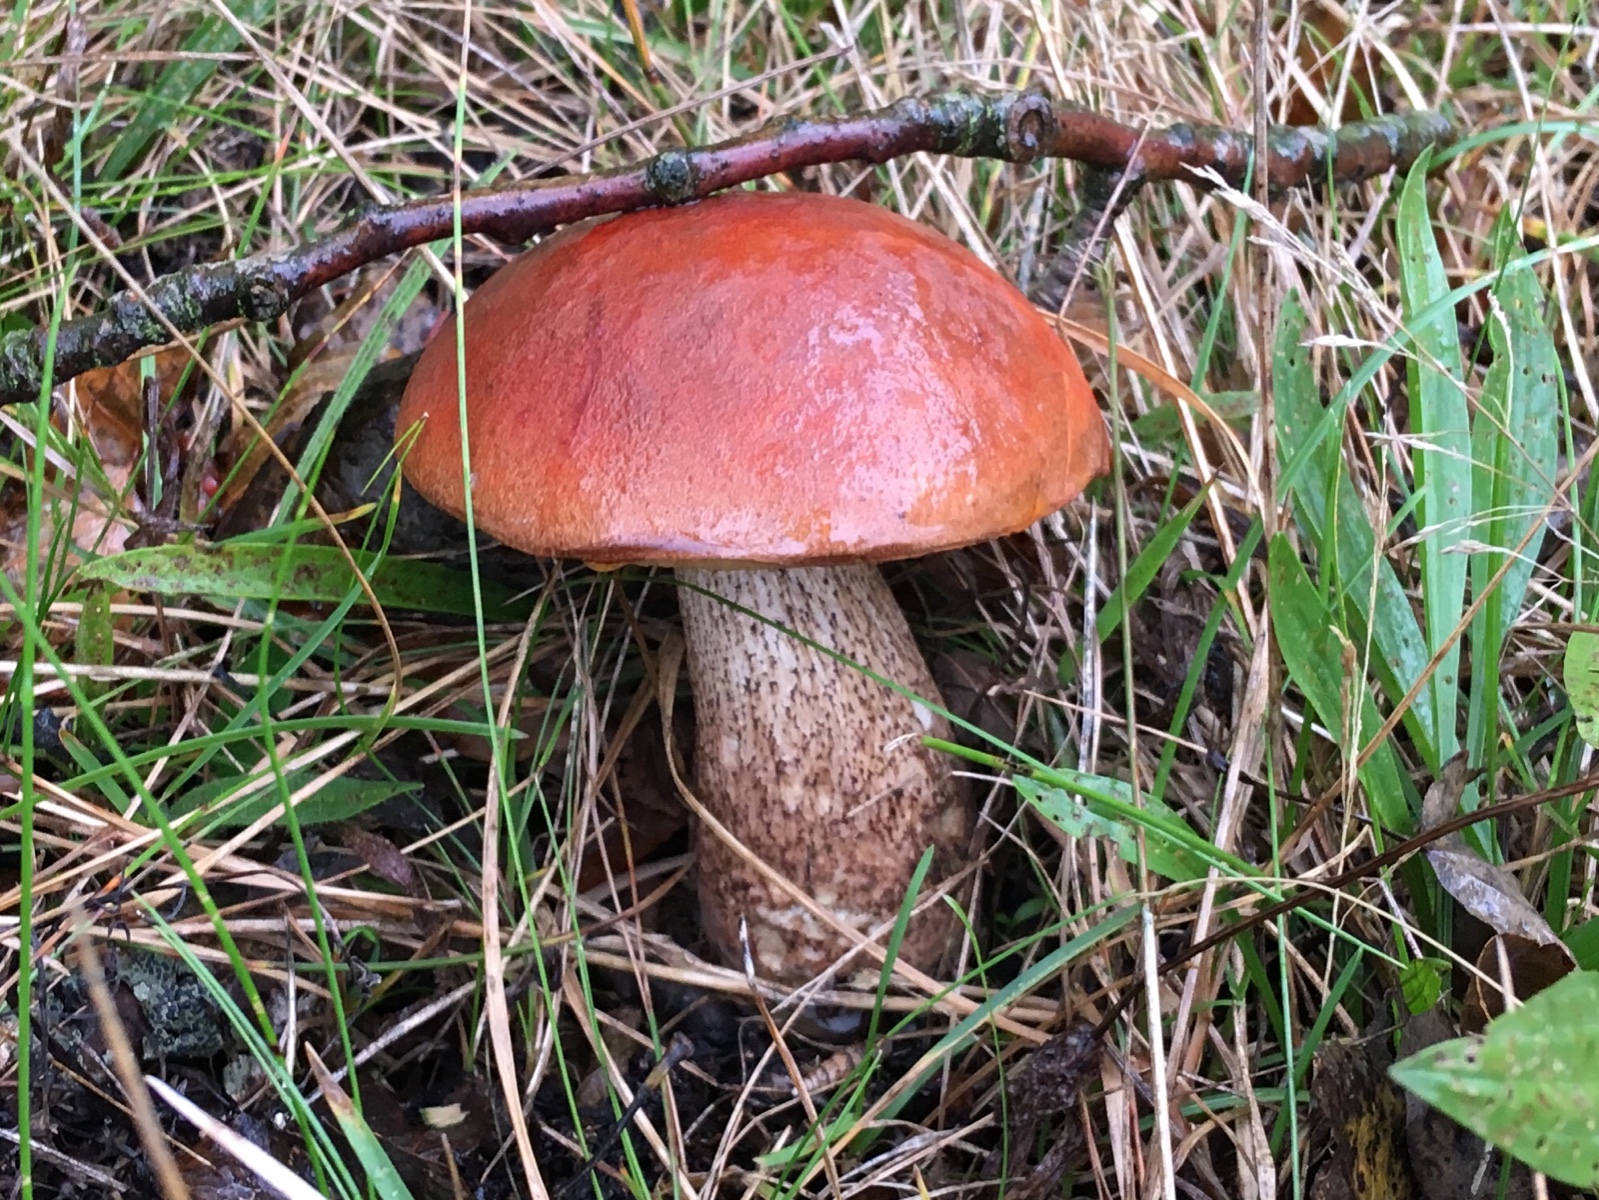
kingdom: Fungi
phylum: Basidiomycota
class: Agaricomycetes
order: Boletales
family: Boletaceae
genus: Leccinum
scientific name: Leccinum aurantiacum
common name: rustrød skælrørhat
